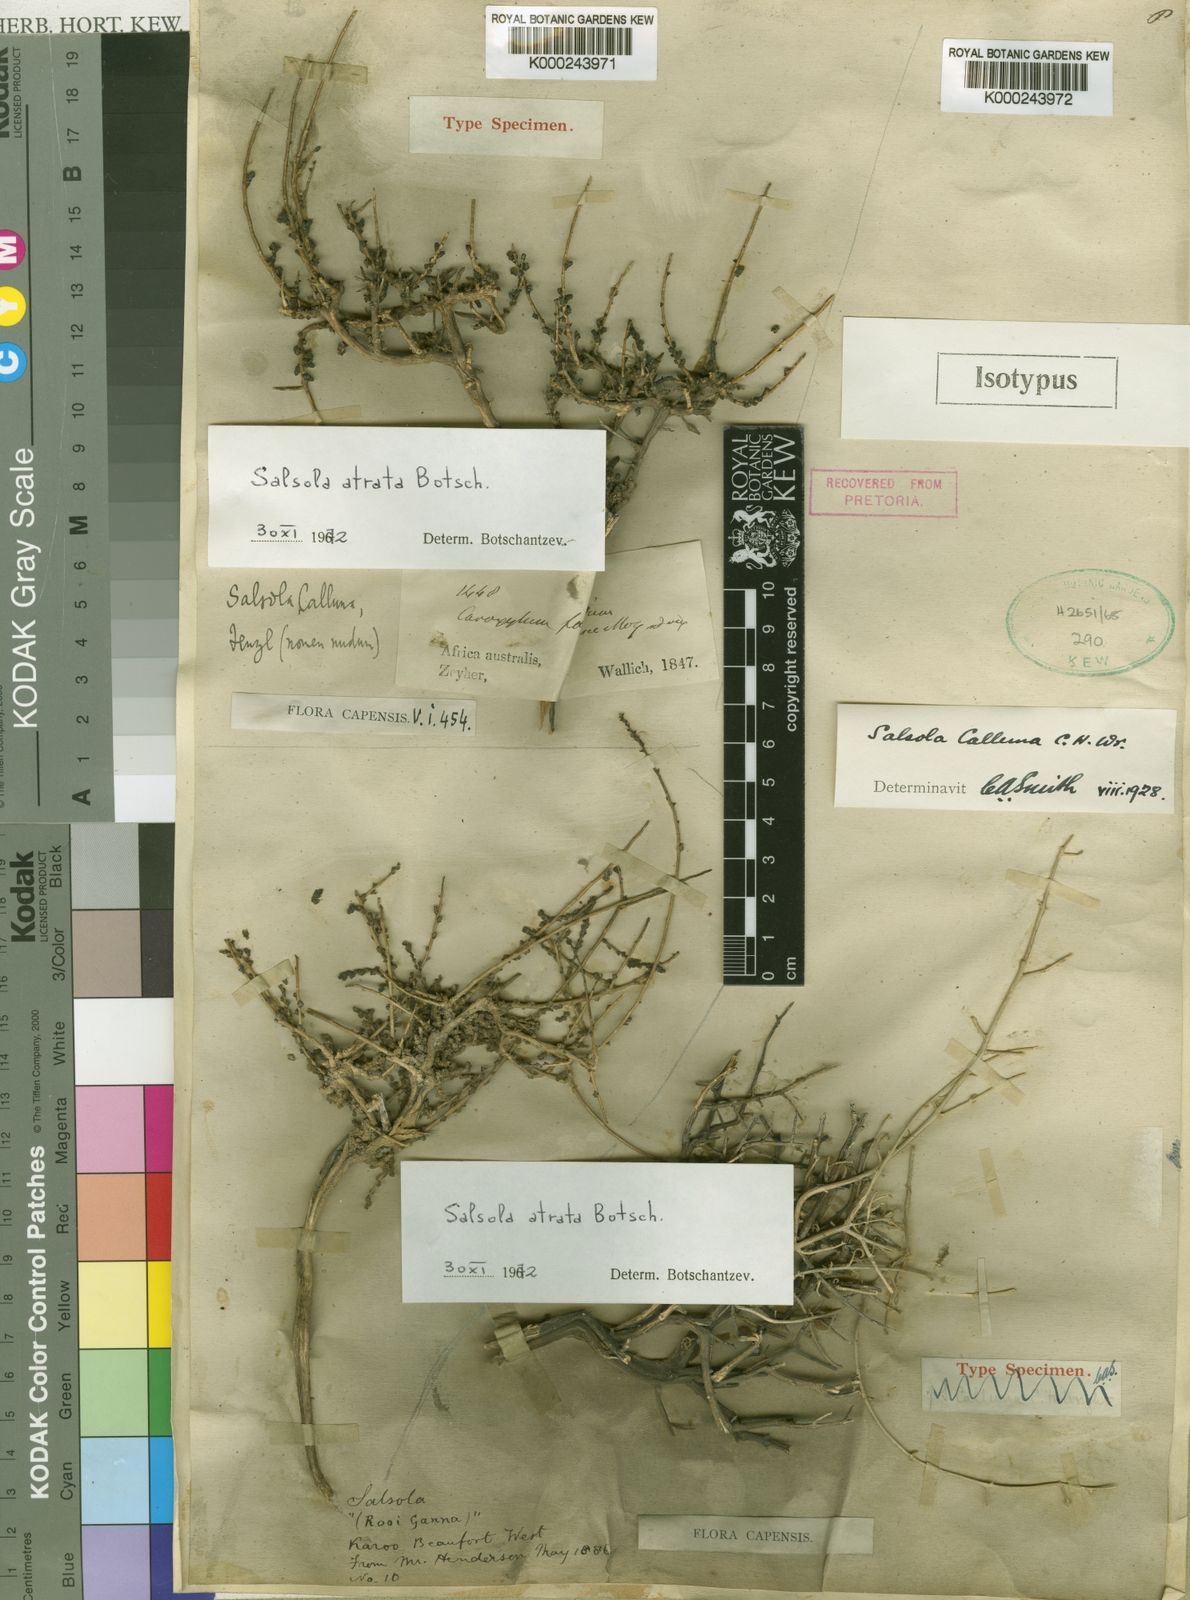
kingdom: Plantae
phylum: Tracheophyta
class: Magnoliopsida
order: Caryophyllales
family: Amaranthaceae
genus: Caroxylon
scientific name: Caroxylon atratum
